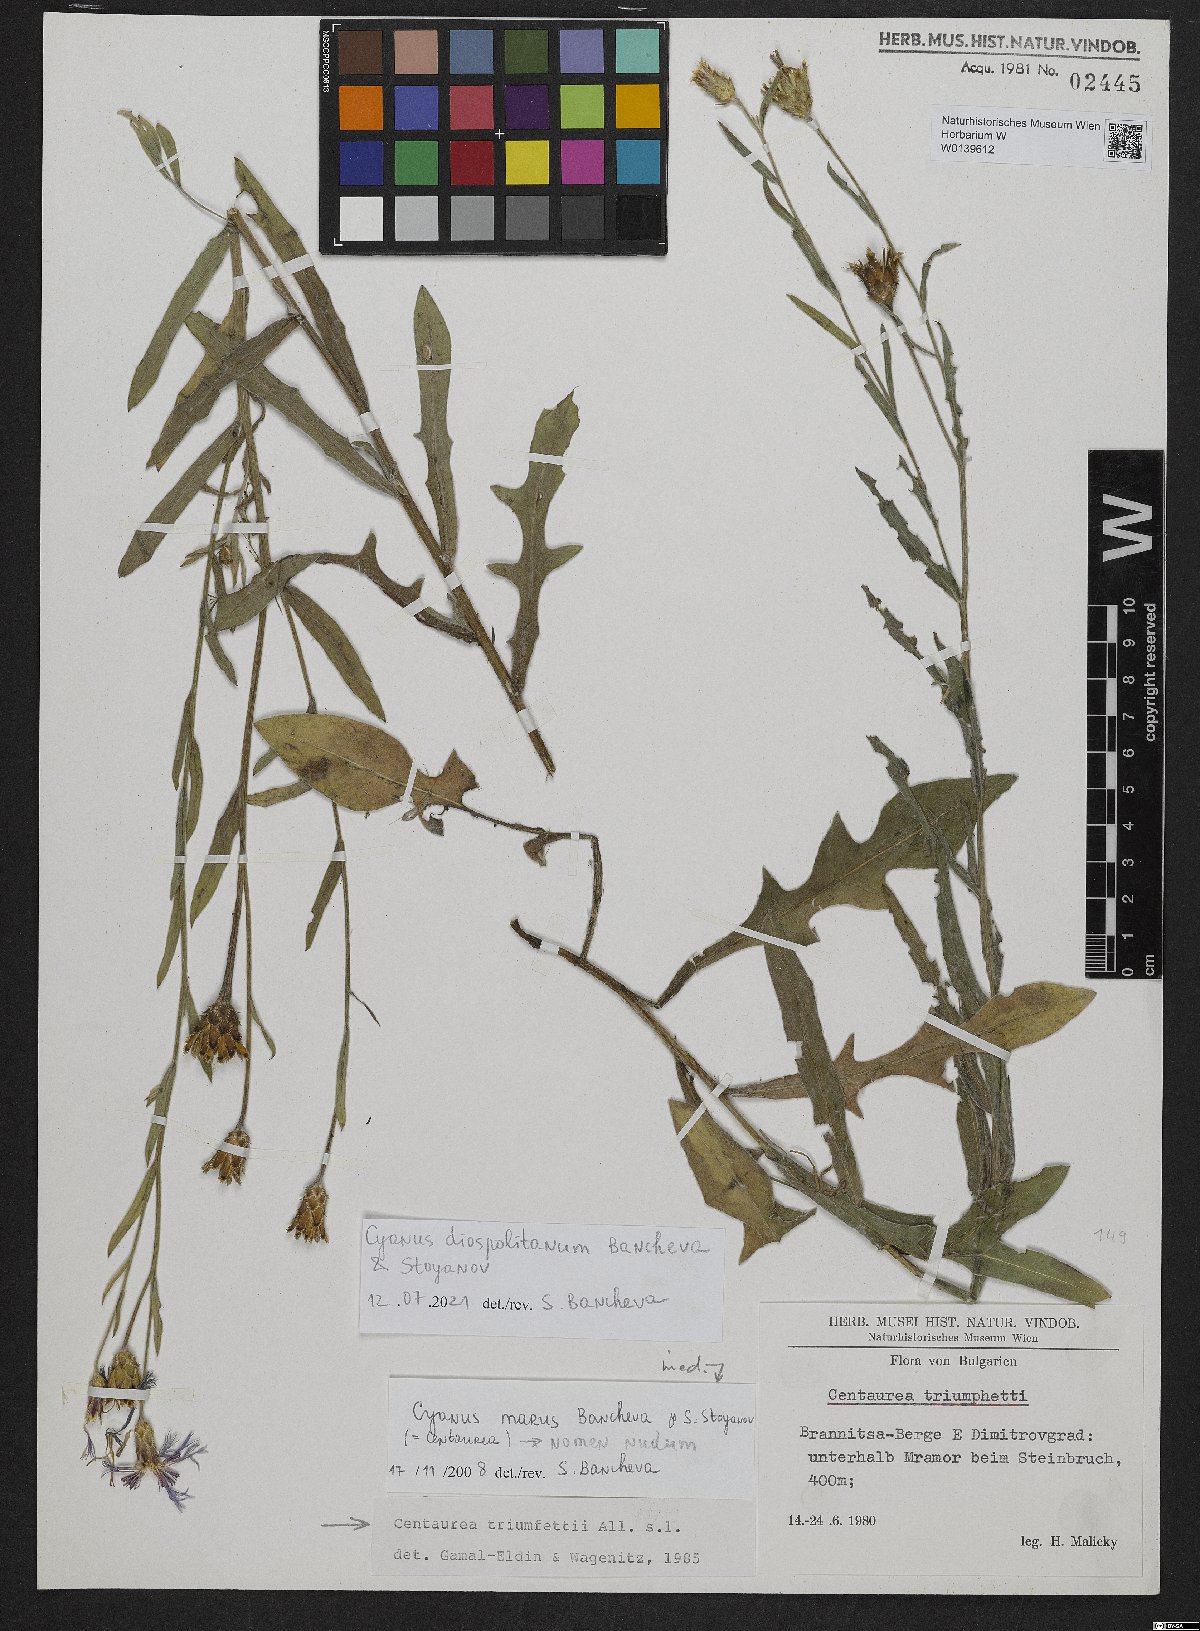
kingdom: Plantae
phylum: Tracheophyta
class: Magnoliopsida
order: Asterales
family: Asteraceae
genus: Centaurea
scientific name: Centaurea cyanomorpha
